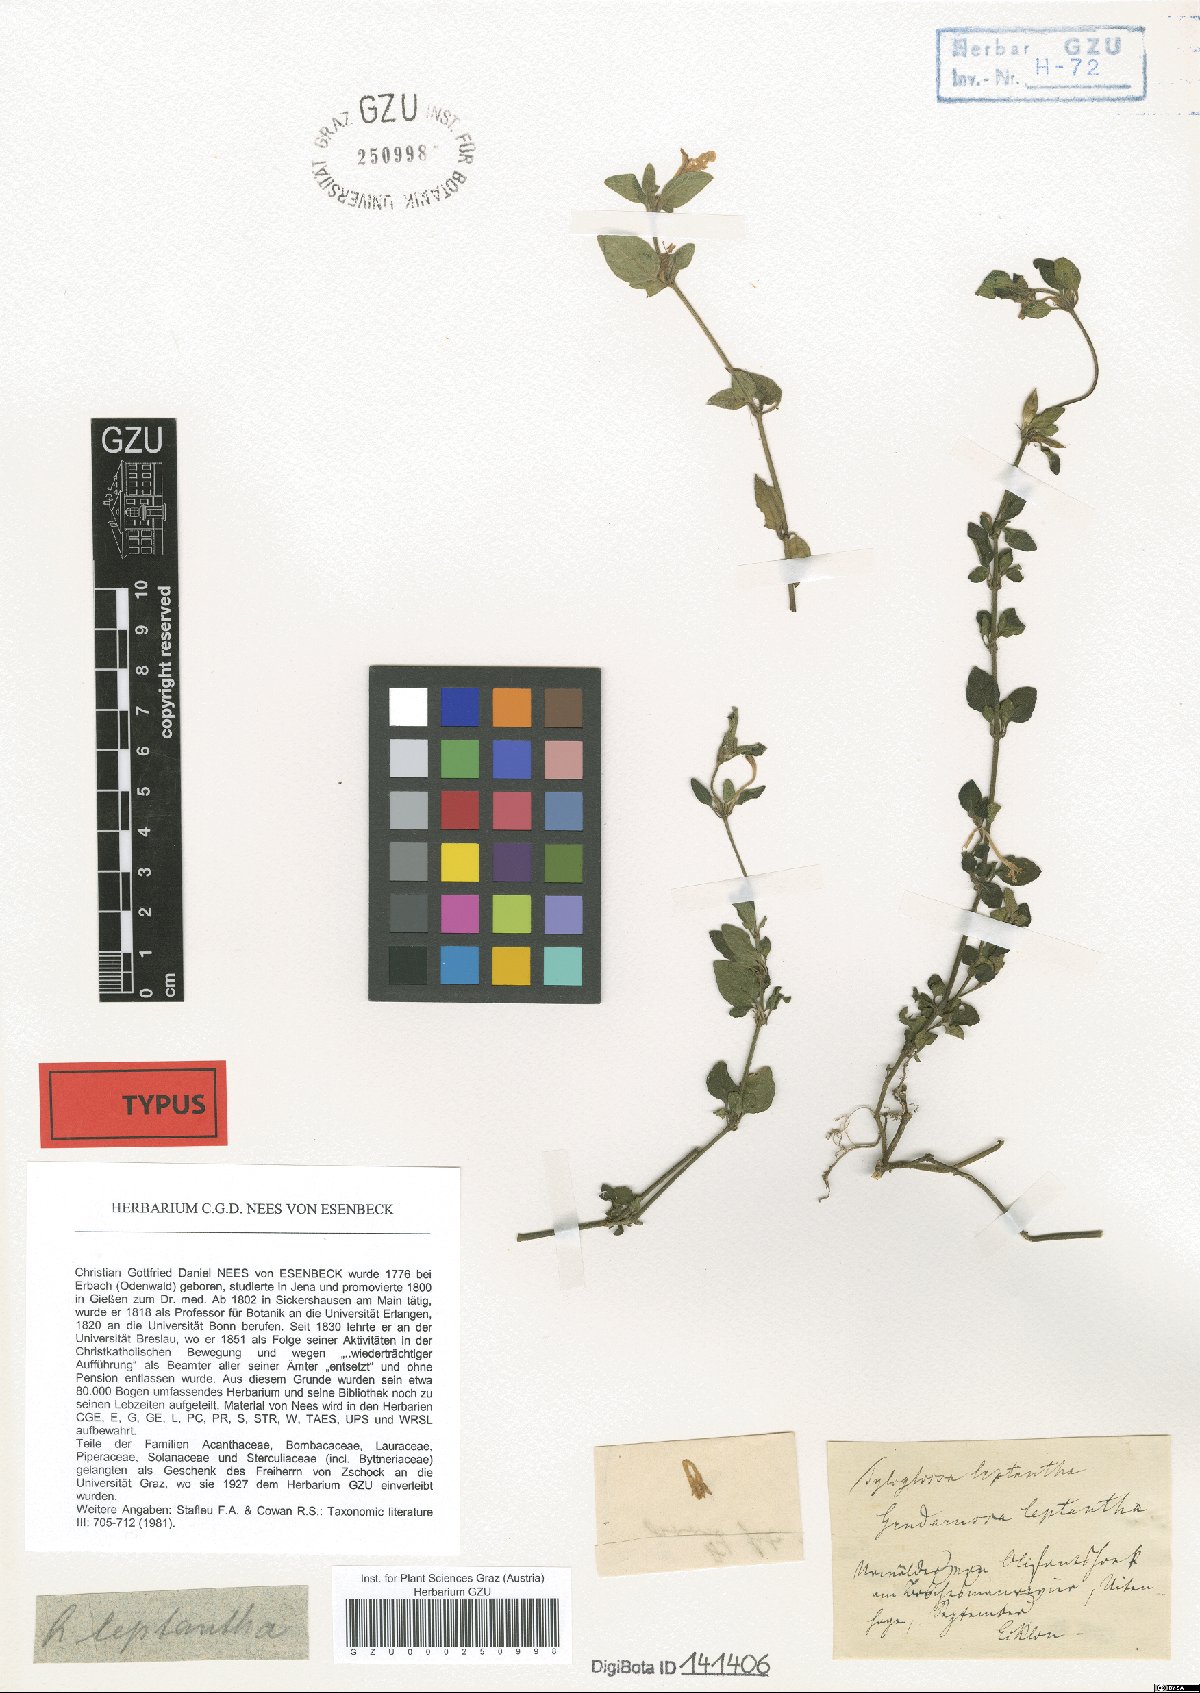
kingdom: Plantae
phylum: Tracheophyta
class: Magnoliopsida
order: Lamiales
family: Acanthaceae
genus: Justicia
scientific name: Justicia tubulosa
